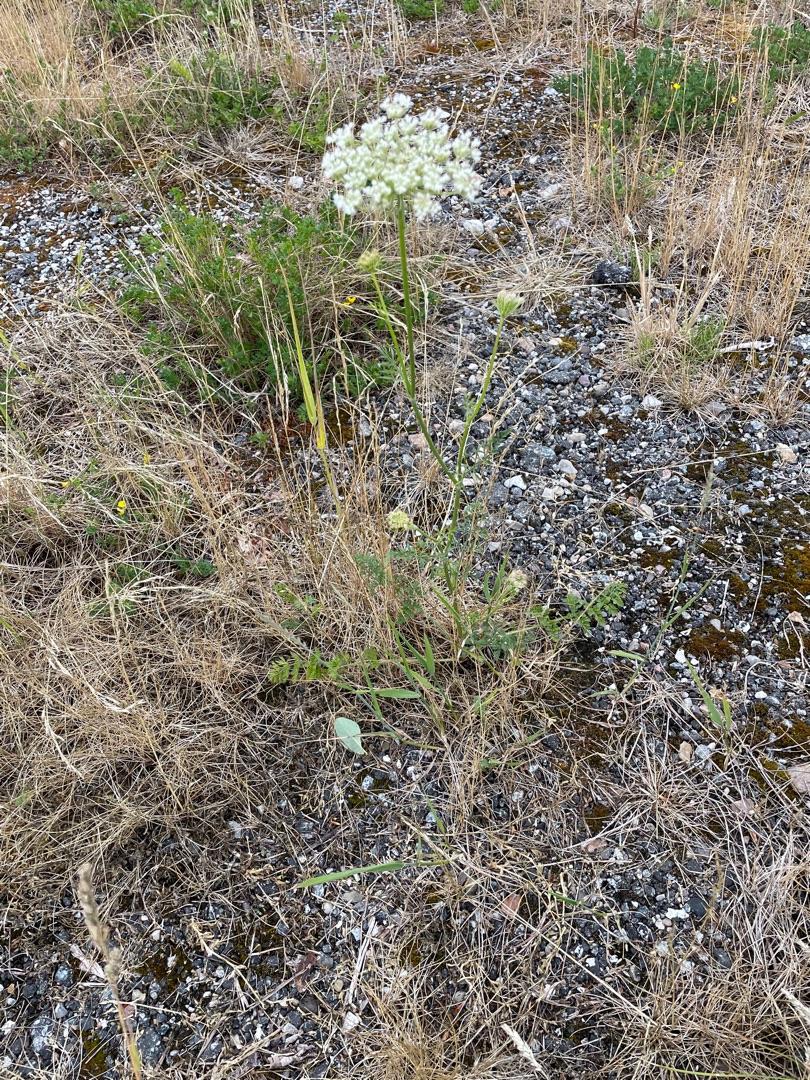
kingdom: Plantae
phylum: Tracheophyta
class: Magnoliopsida
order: Apiales
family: Apiaceae
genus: Daucus
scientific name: Daucus carota
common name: Gulerod
